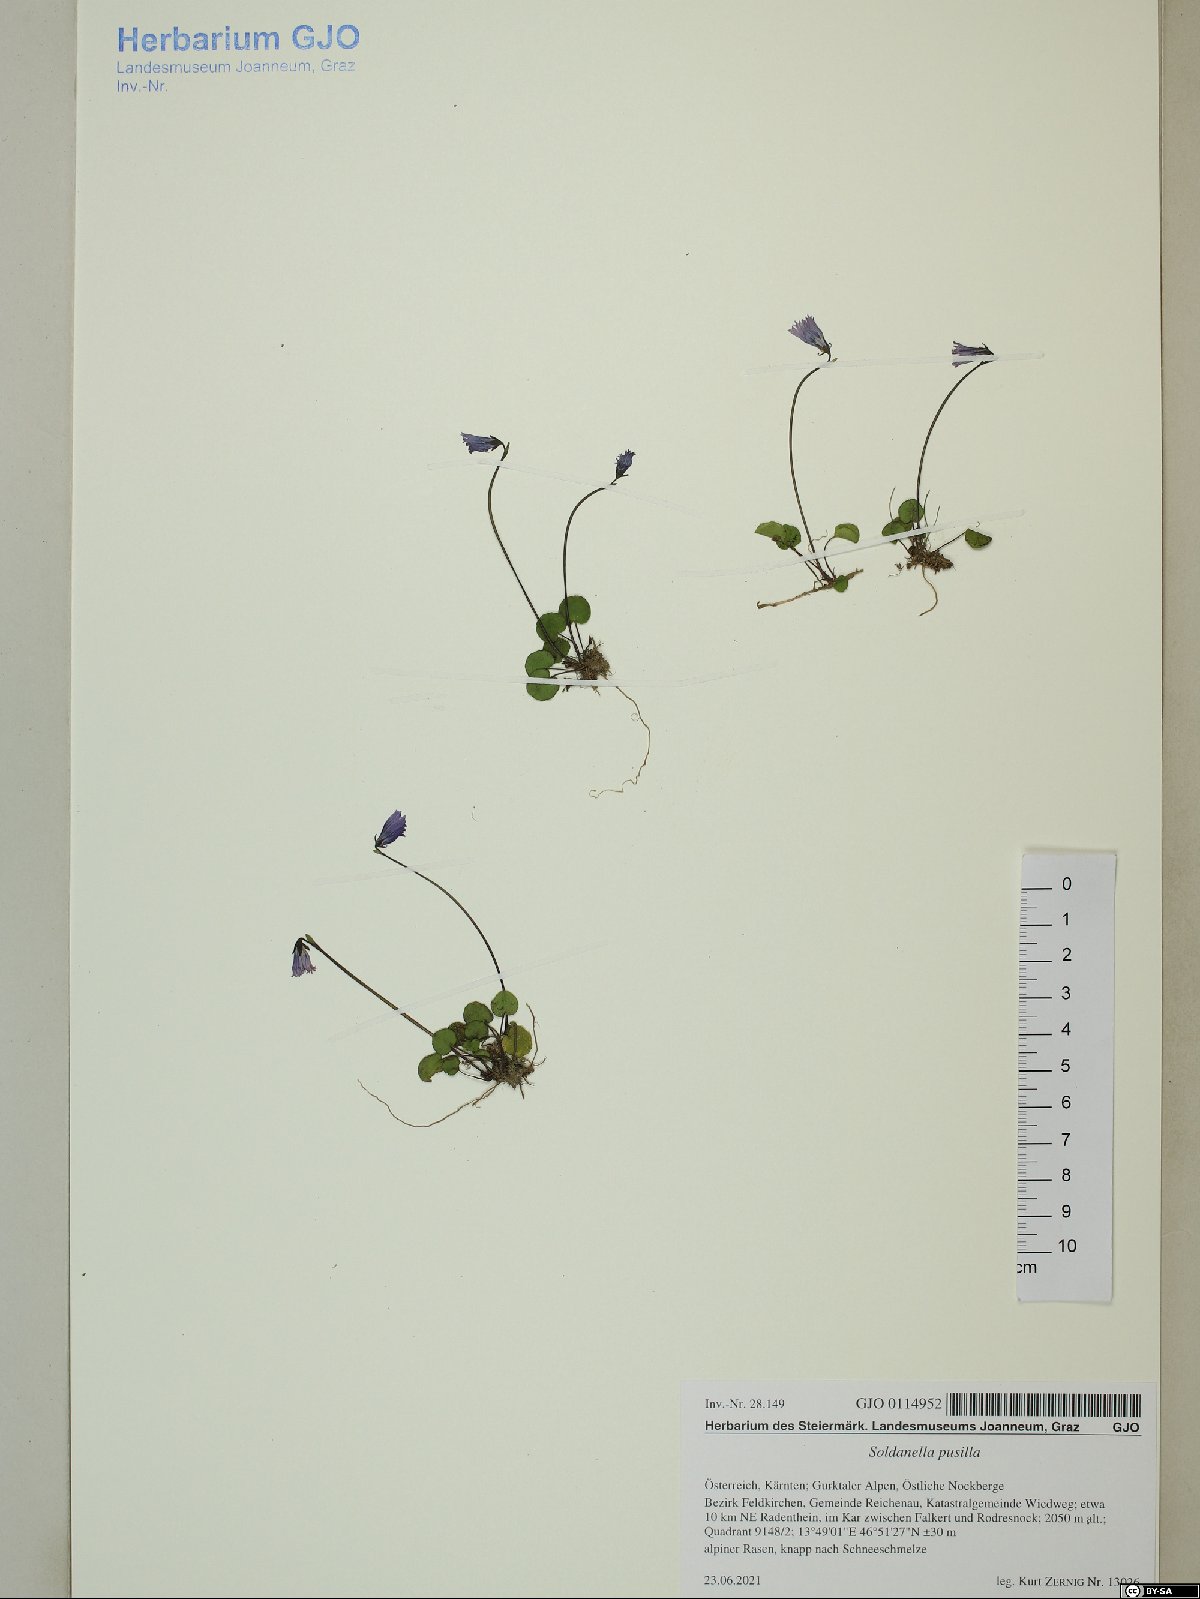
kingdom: Plantae
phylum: Tracheophyta
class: Magnoliopsida
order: Ericales
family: Primulaceae
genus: Soldanella
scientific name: Soldanella pusilla
